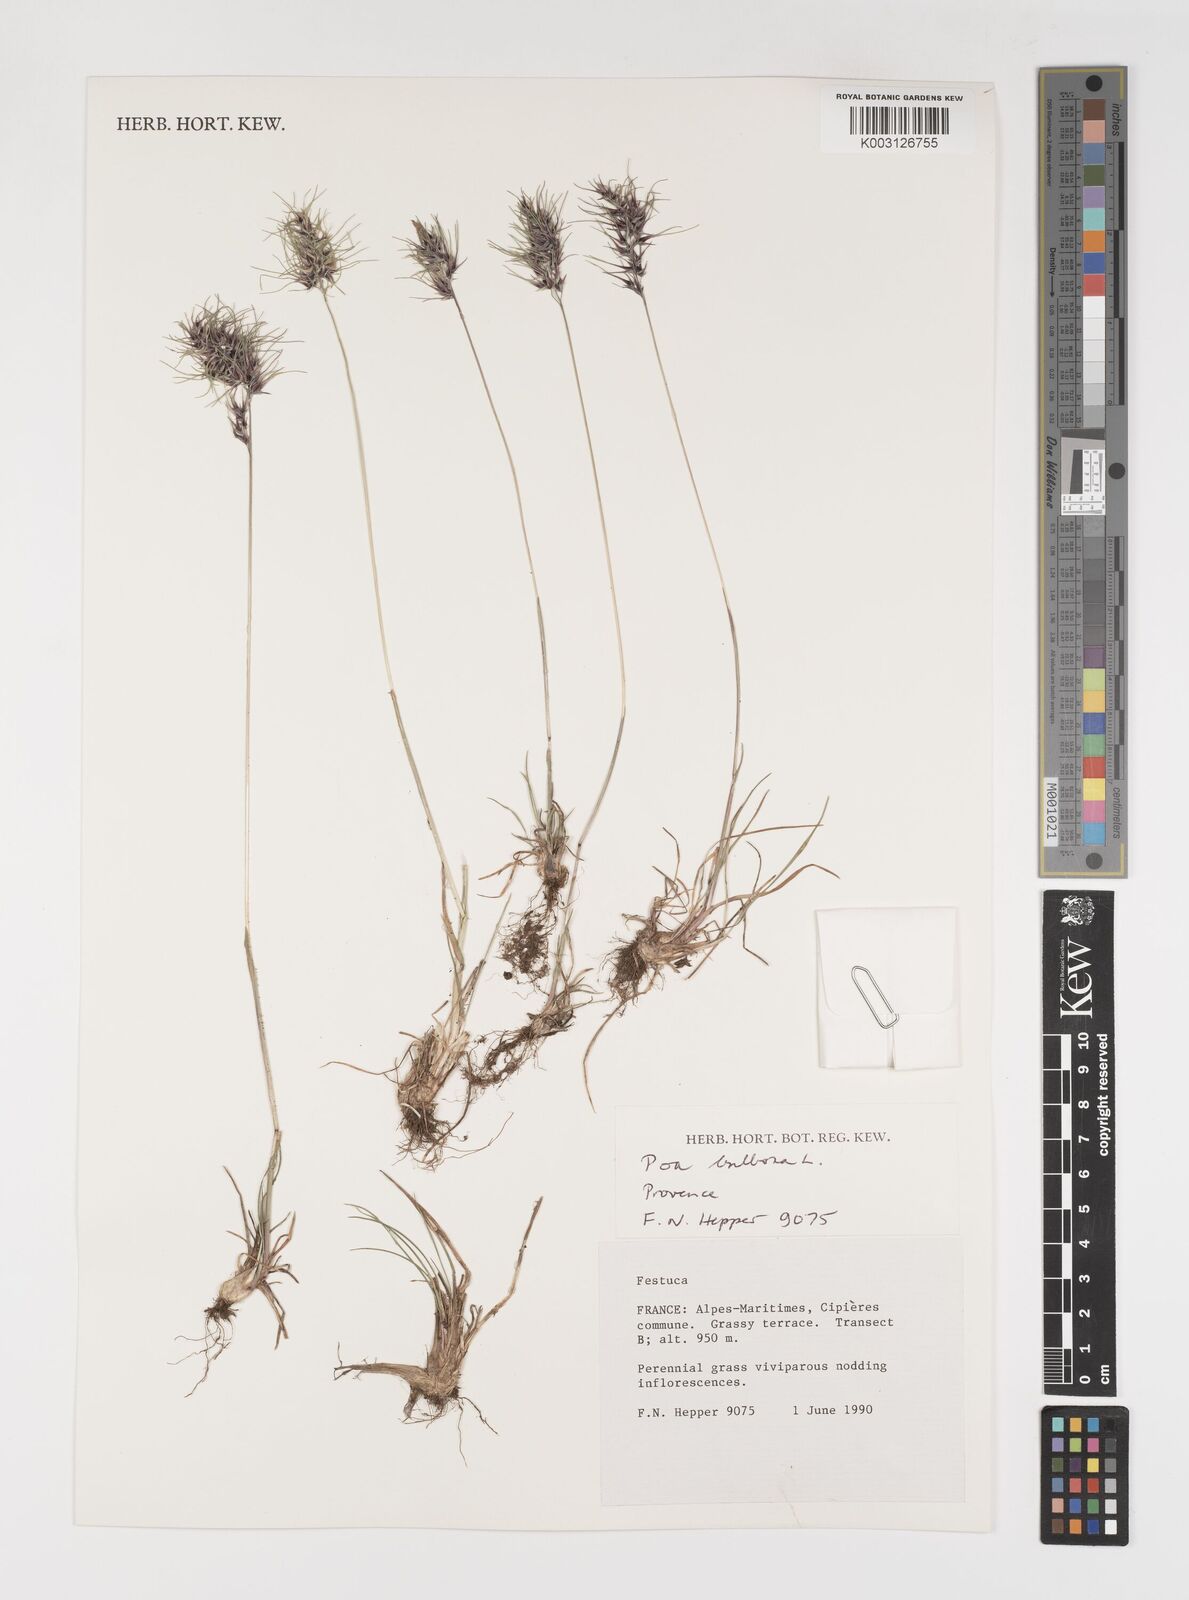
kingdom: Plantae
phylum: Tracheophyta
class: Liliopsida
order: Poales
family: Poaceae
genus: Poa
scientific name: Poa bulbosa
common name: Bulbous bluegrass
